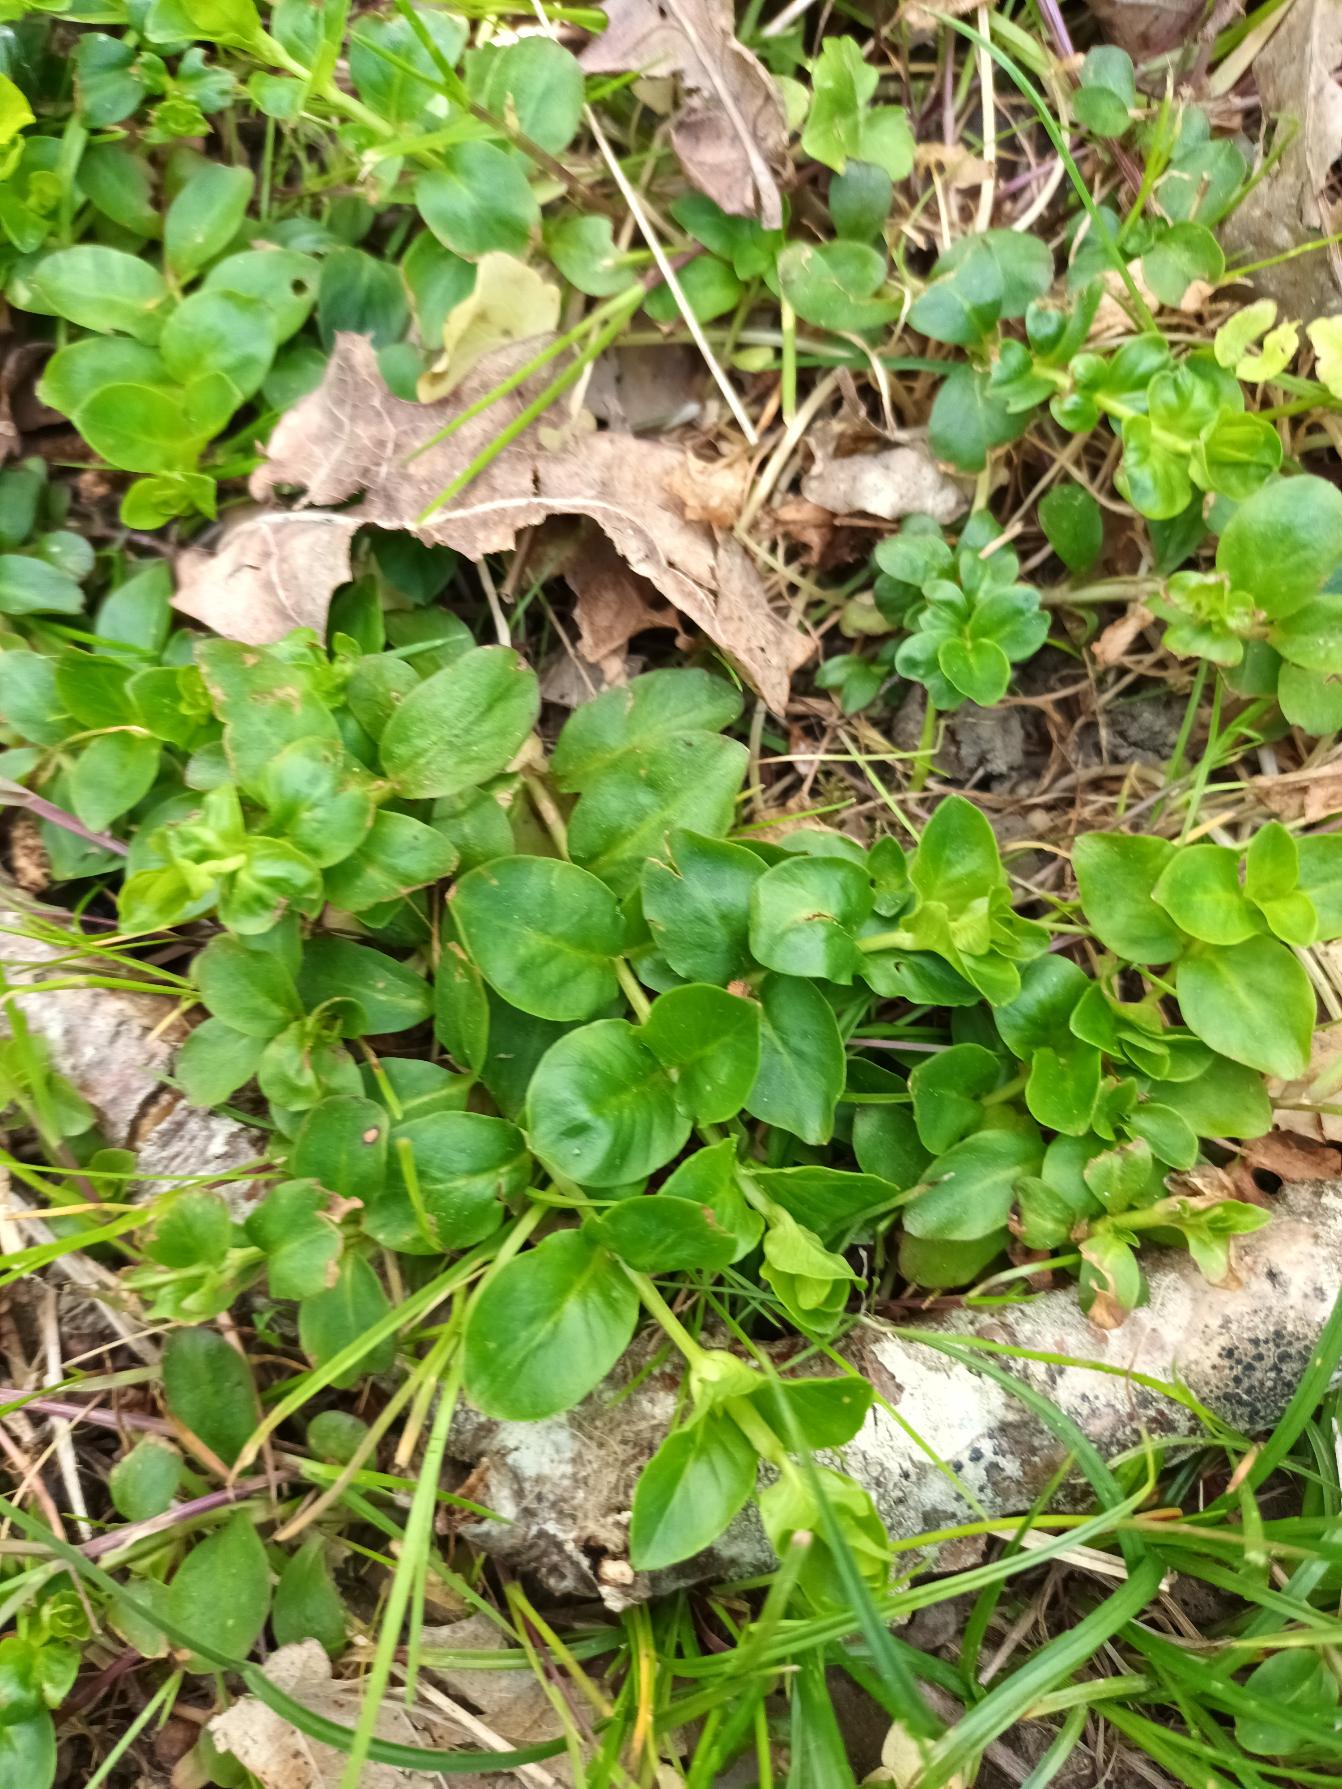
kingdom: Plantae
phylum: Tracheophyta
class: Magnoliopsida
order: Ericales
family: Primulaceae
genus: Lysimachia
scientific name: Lysimachia nummularia
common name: Pengebladet fredløs
